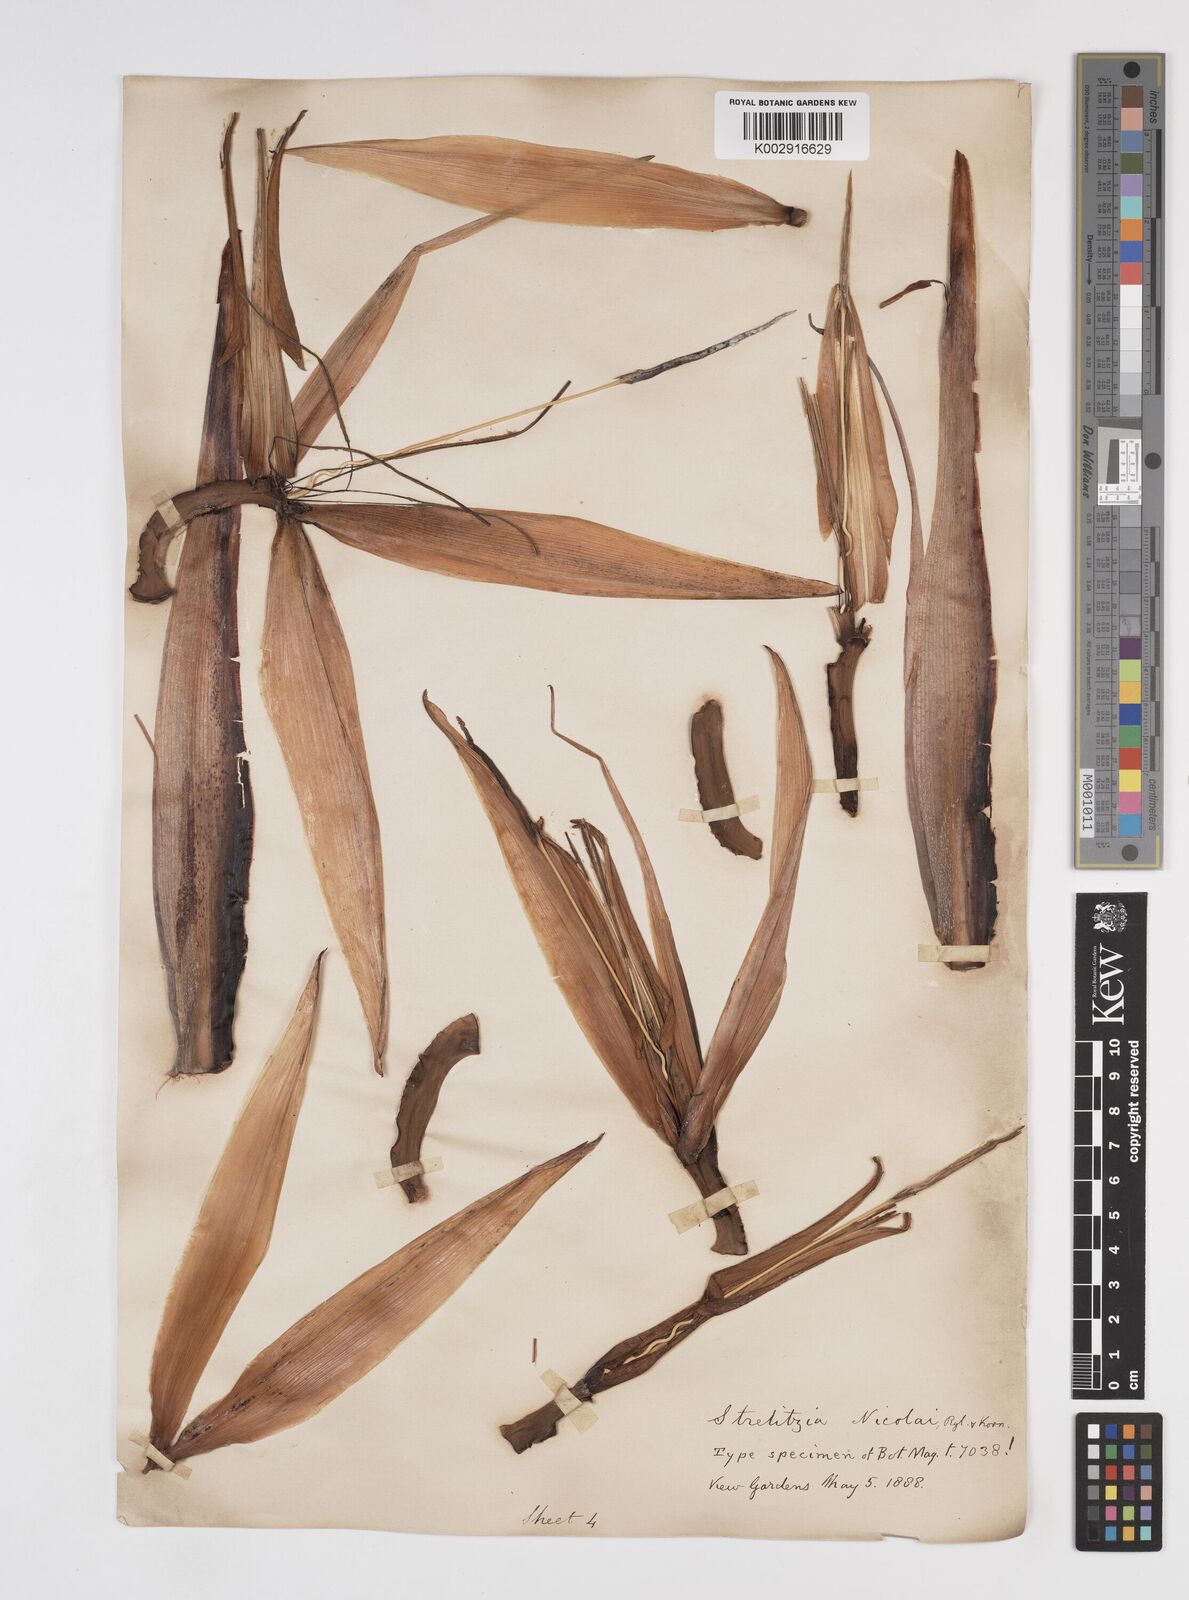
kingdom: Plantae
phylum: Tracheophyta
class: Liliopsida
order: Zingiberales
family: Strelitziaceae
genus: Strelitzia
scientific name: Strelitzia nicolai
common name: Bird-of-paradise tree
